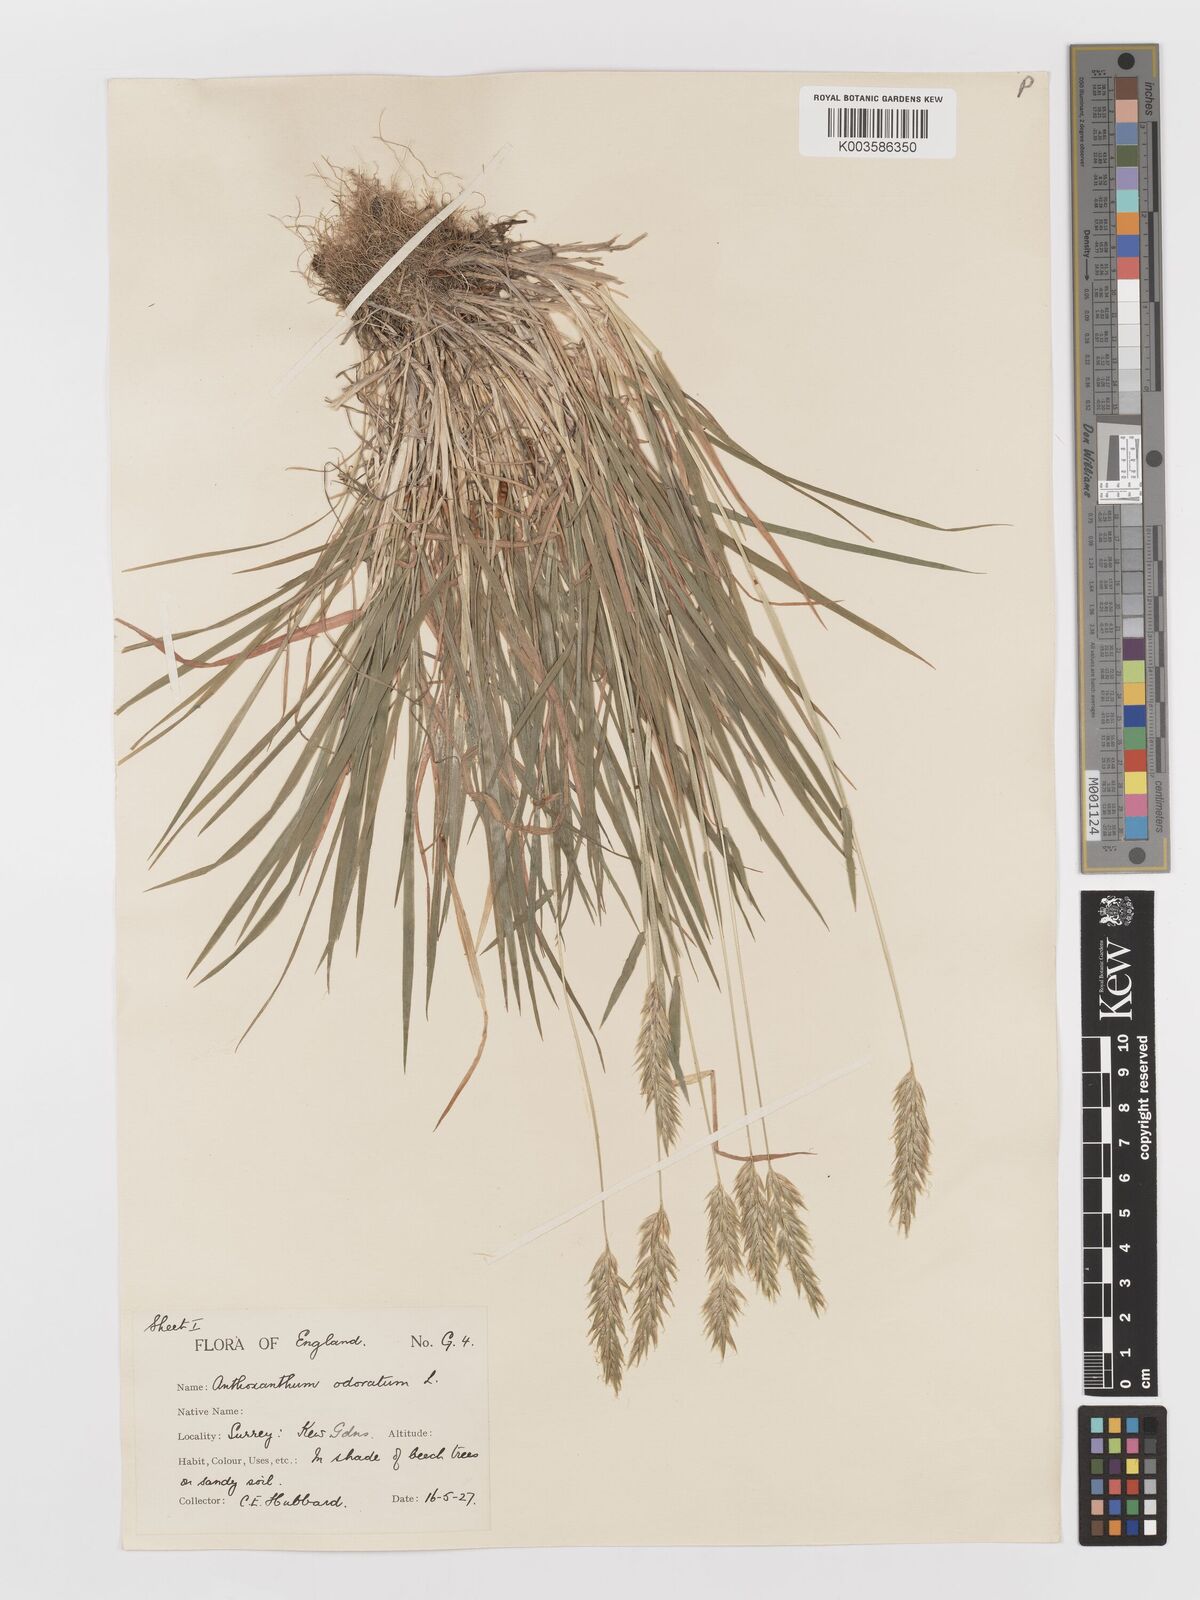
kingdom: Plantae
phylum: Tracheophyta
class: Liliopsida
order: Poales
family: Poaceae
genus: Anthoxanthum
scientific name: Anthoxanthum odoratum
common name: Sweet vernalgrass
